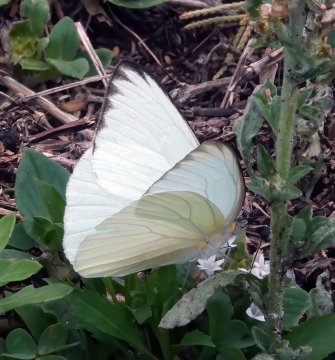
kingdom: Animalia
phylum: Arthropoda
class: Insecta
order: Lepidoptera
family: Pieridae
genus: Ascia
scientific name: Ascia monuste
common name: Great Southern White
